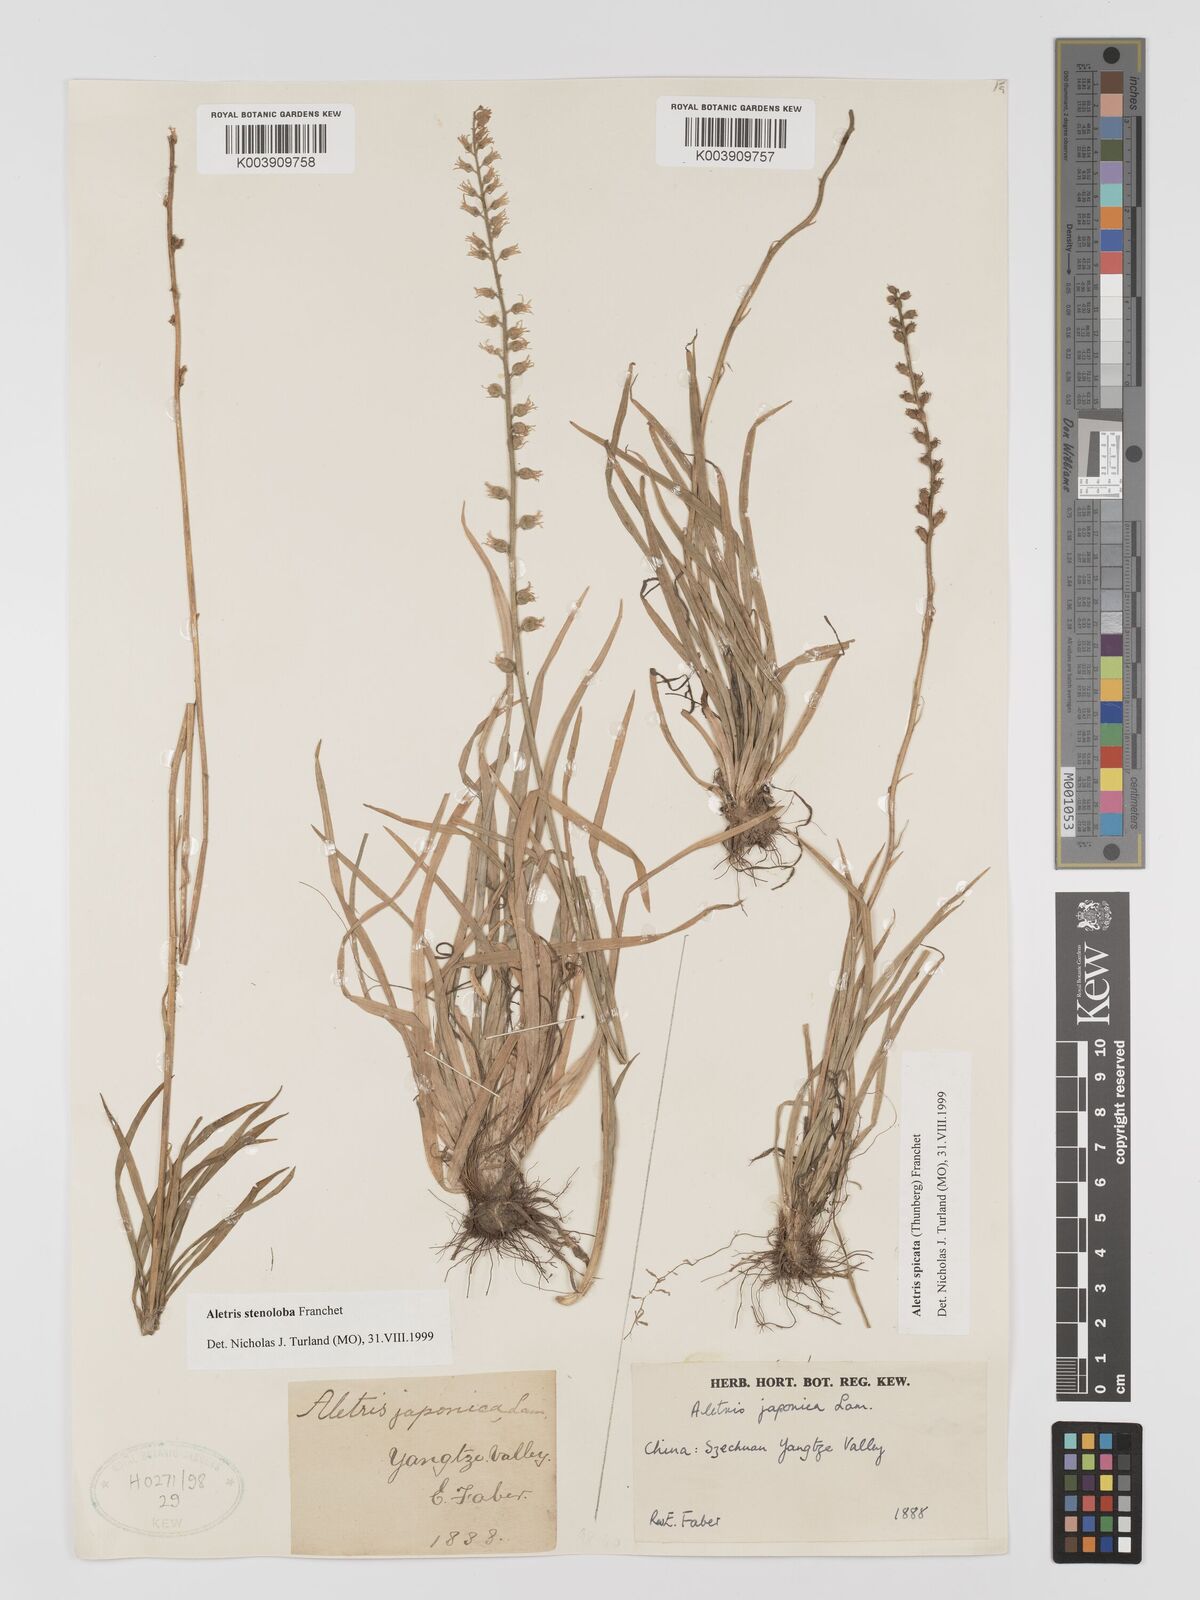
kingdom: Plantae
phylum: Tracheophyta
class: Liliopsida
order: Dioscoreales
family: Nartheciaceae
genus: Aletris
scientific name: Aletris stenoloba
